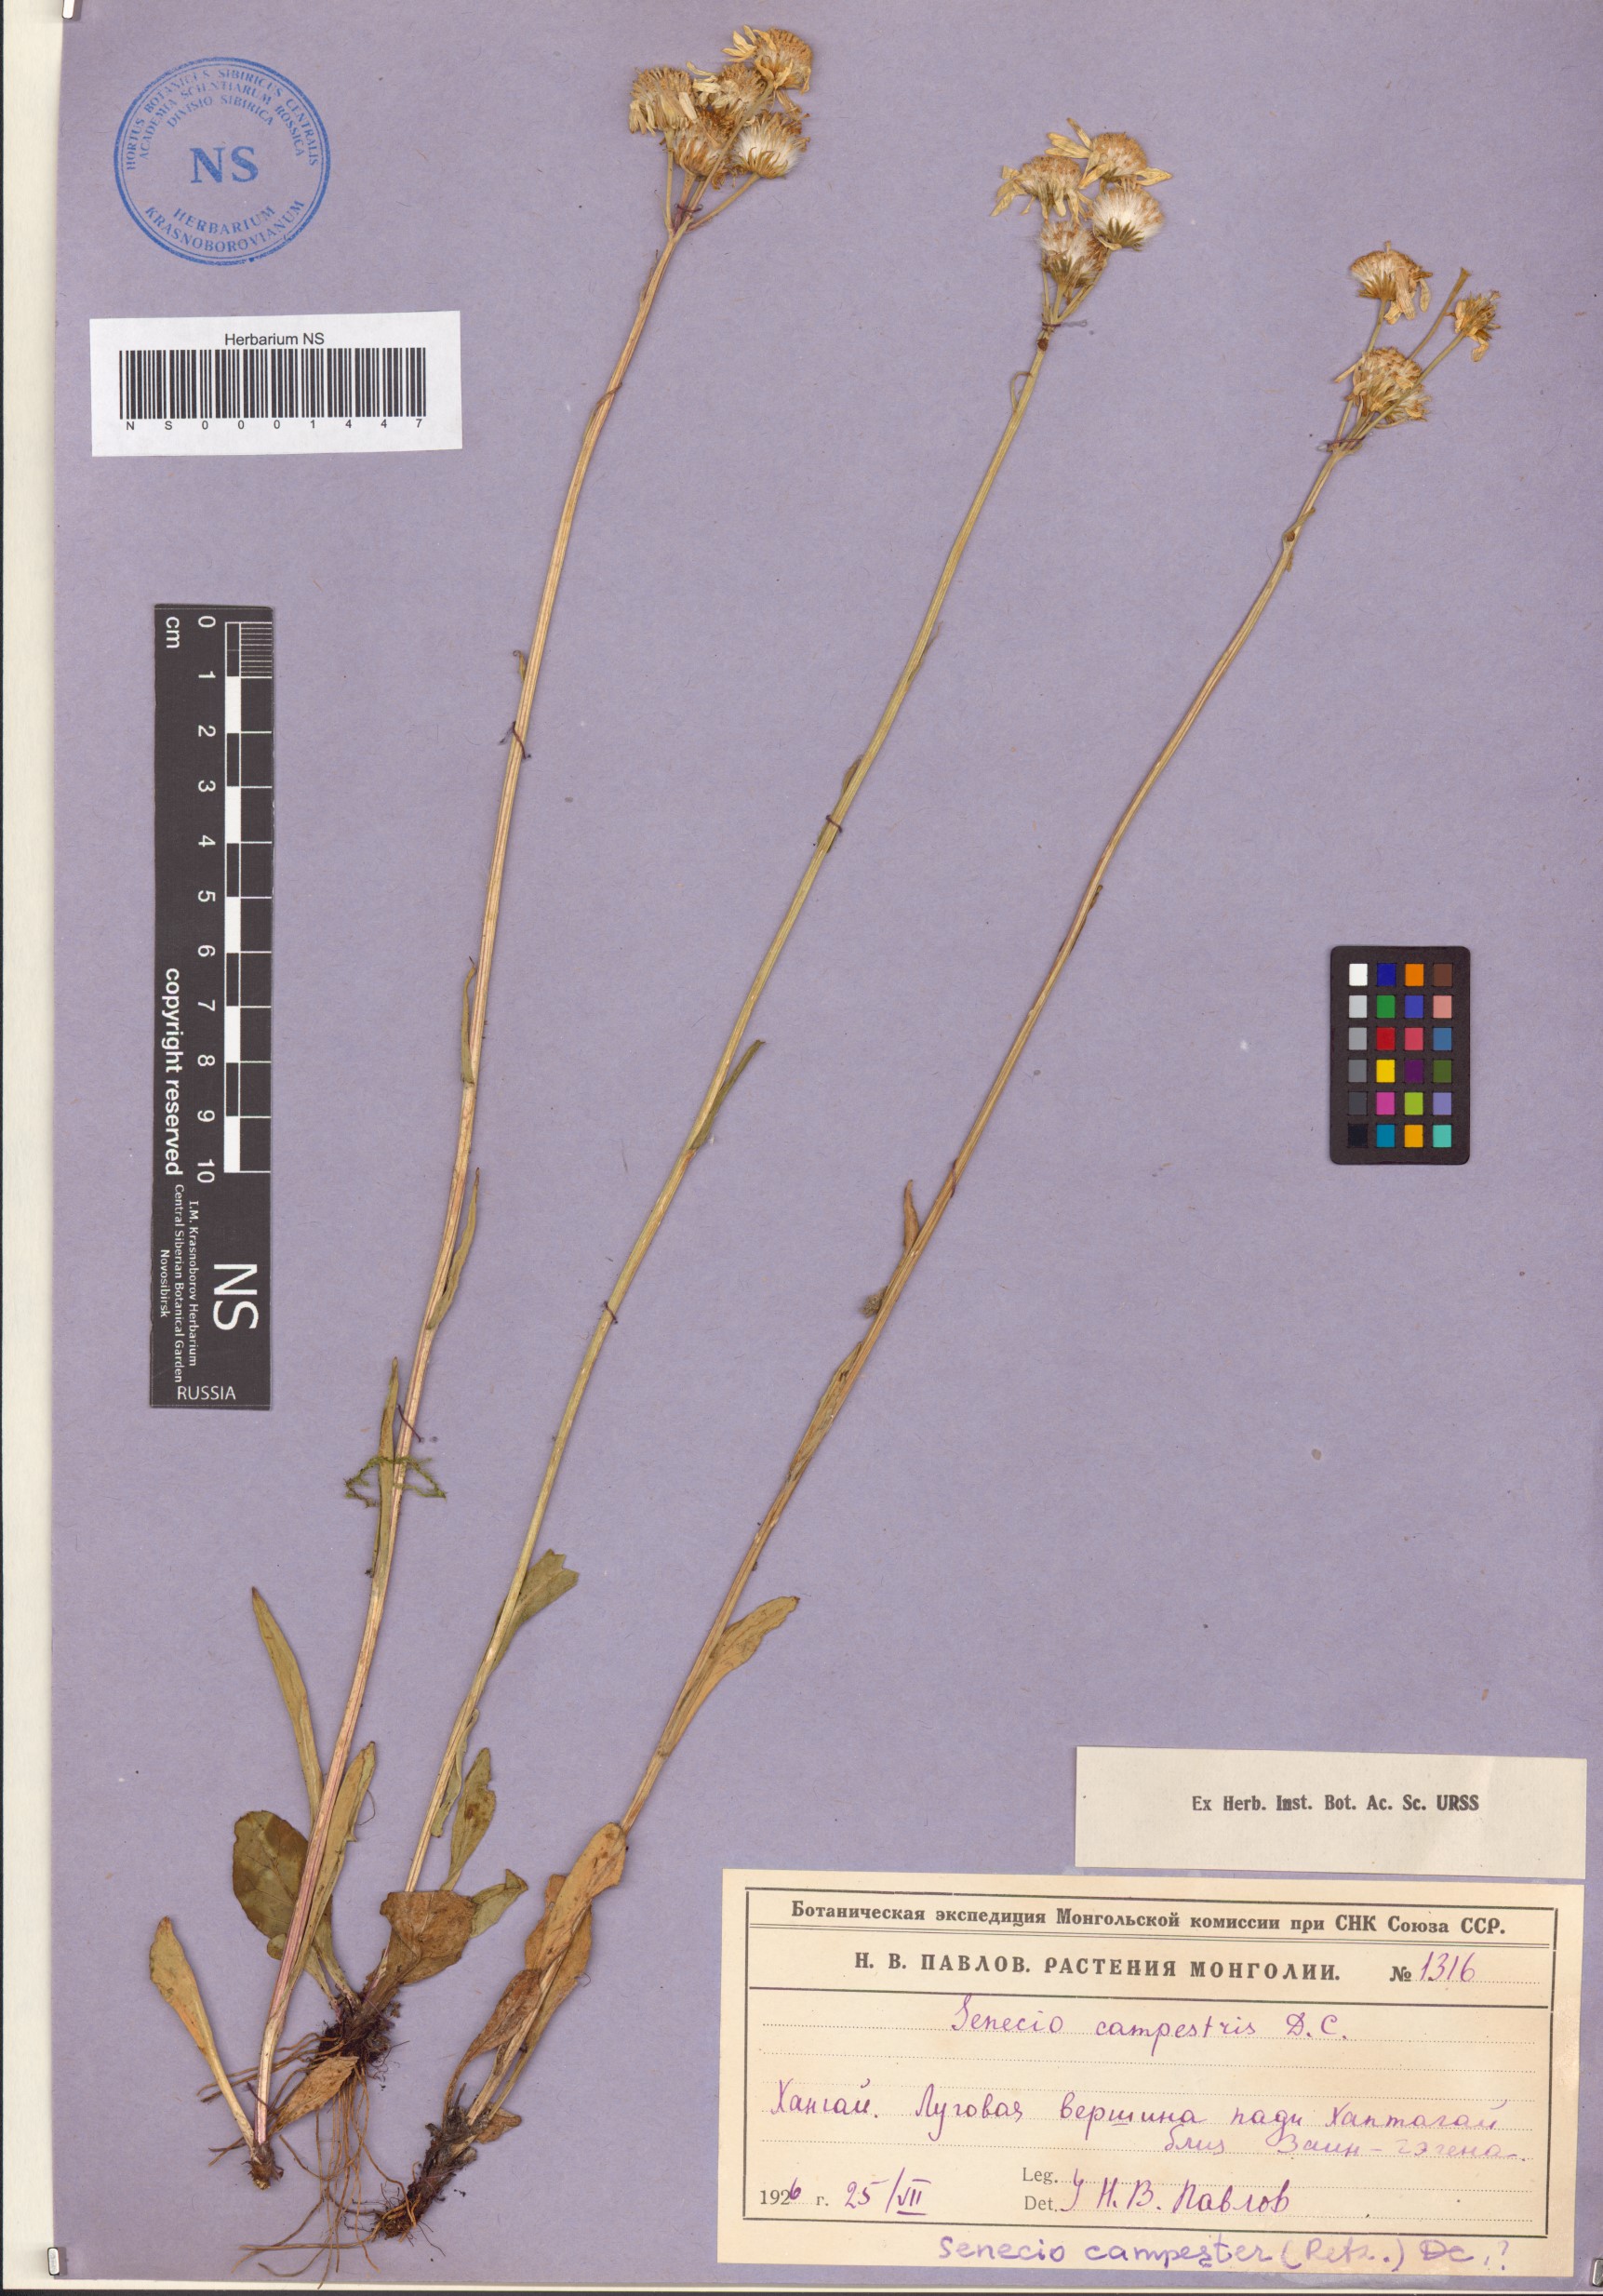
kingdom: Plantae
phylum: Tracheophyta
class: Magnoliopsida
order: Asterales
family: Asteraceae
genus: Tephroseris
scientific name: Tephroseris integrifolia
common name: Field fleawort
